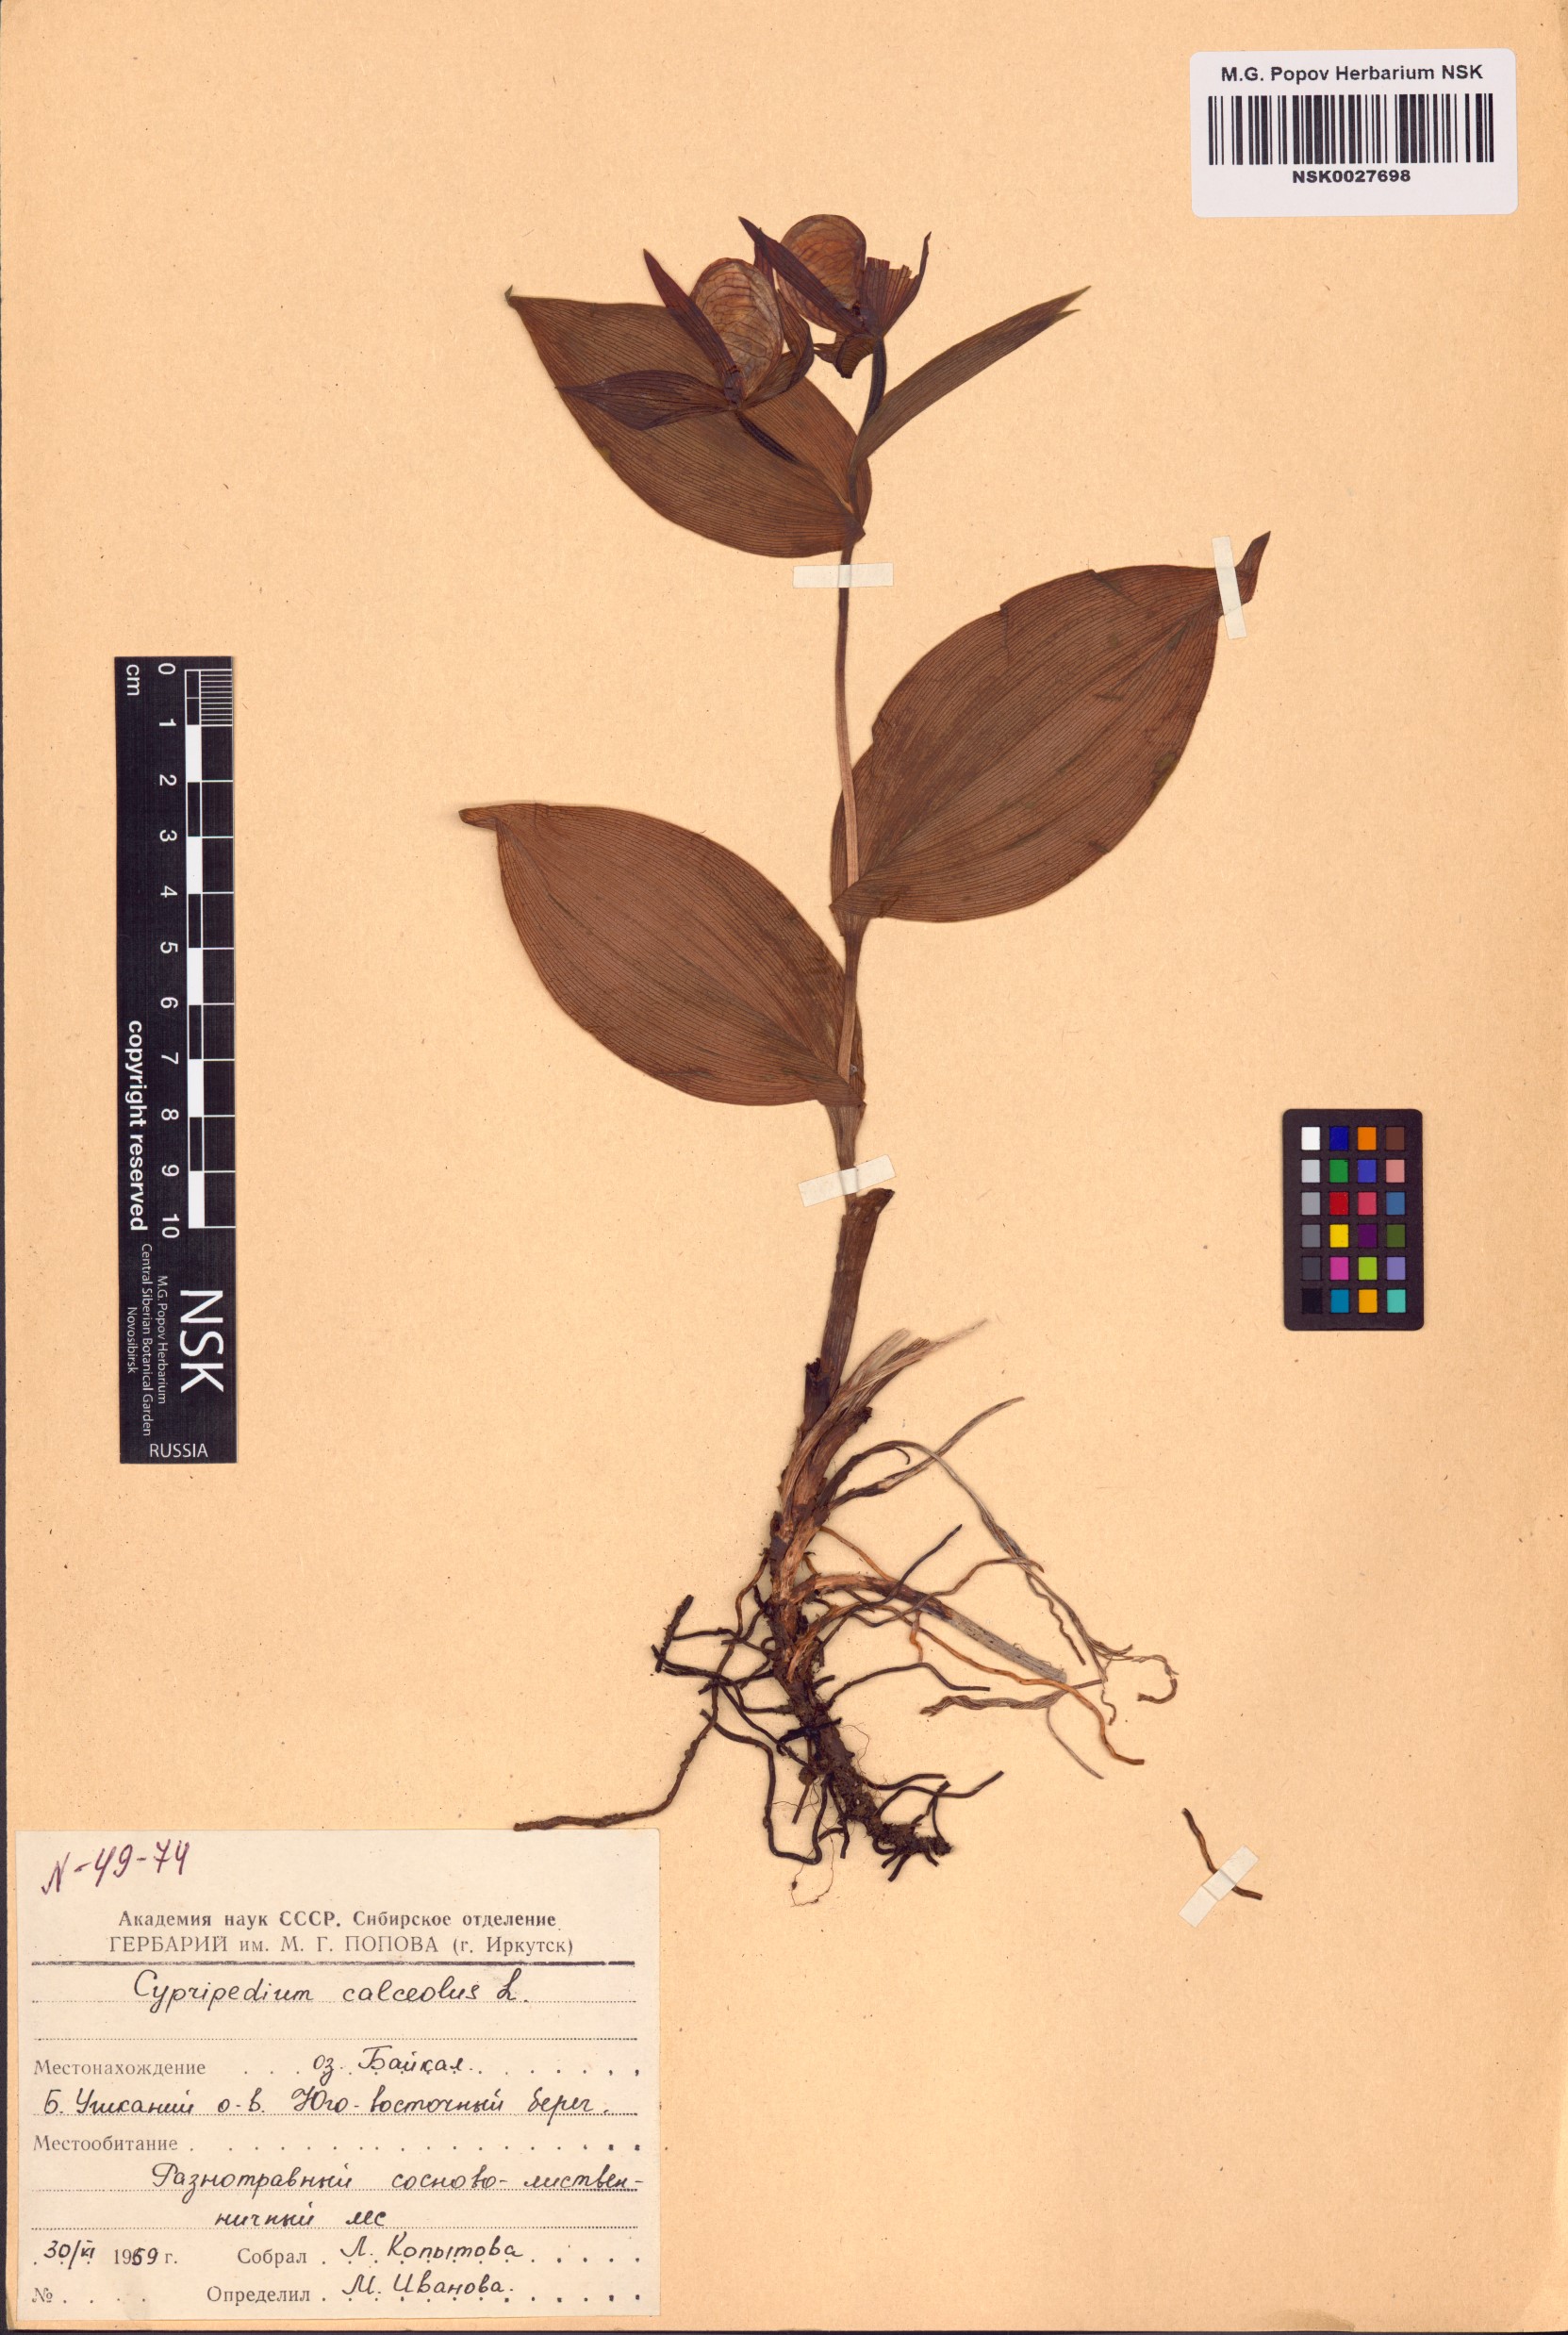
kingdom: Plantae
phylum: Tracheophyta
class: Liliopsida
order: Asparagales
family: Orchidaceae
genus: Cypripedium
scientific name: Cypripedium calceolus
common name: Lady's-slipper
